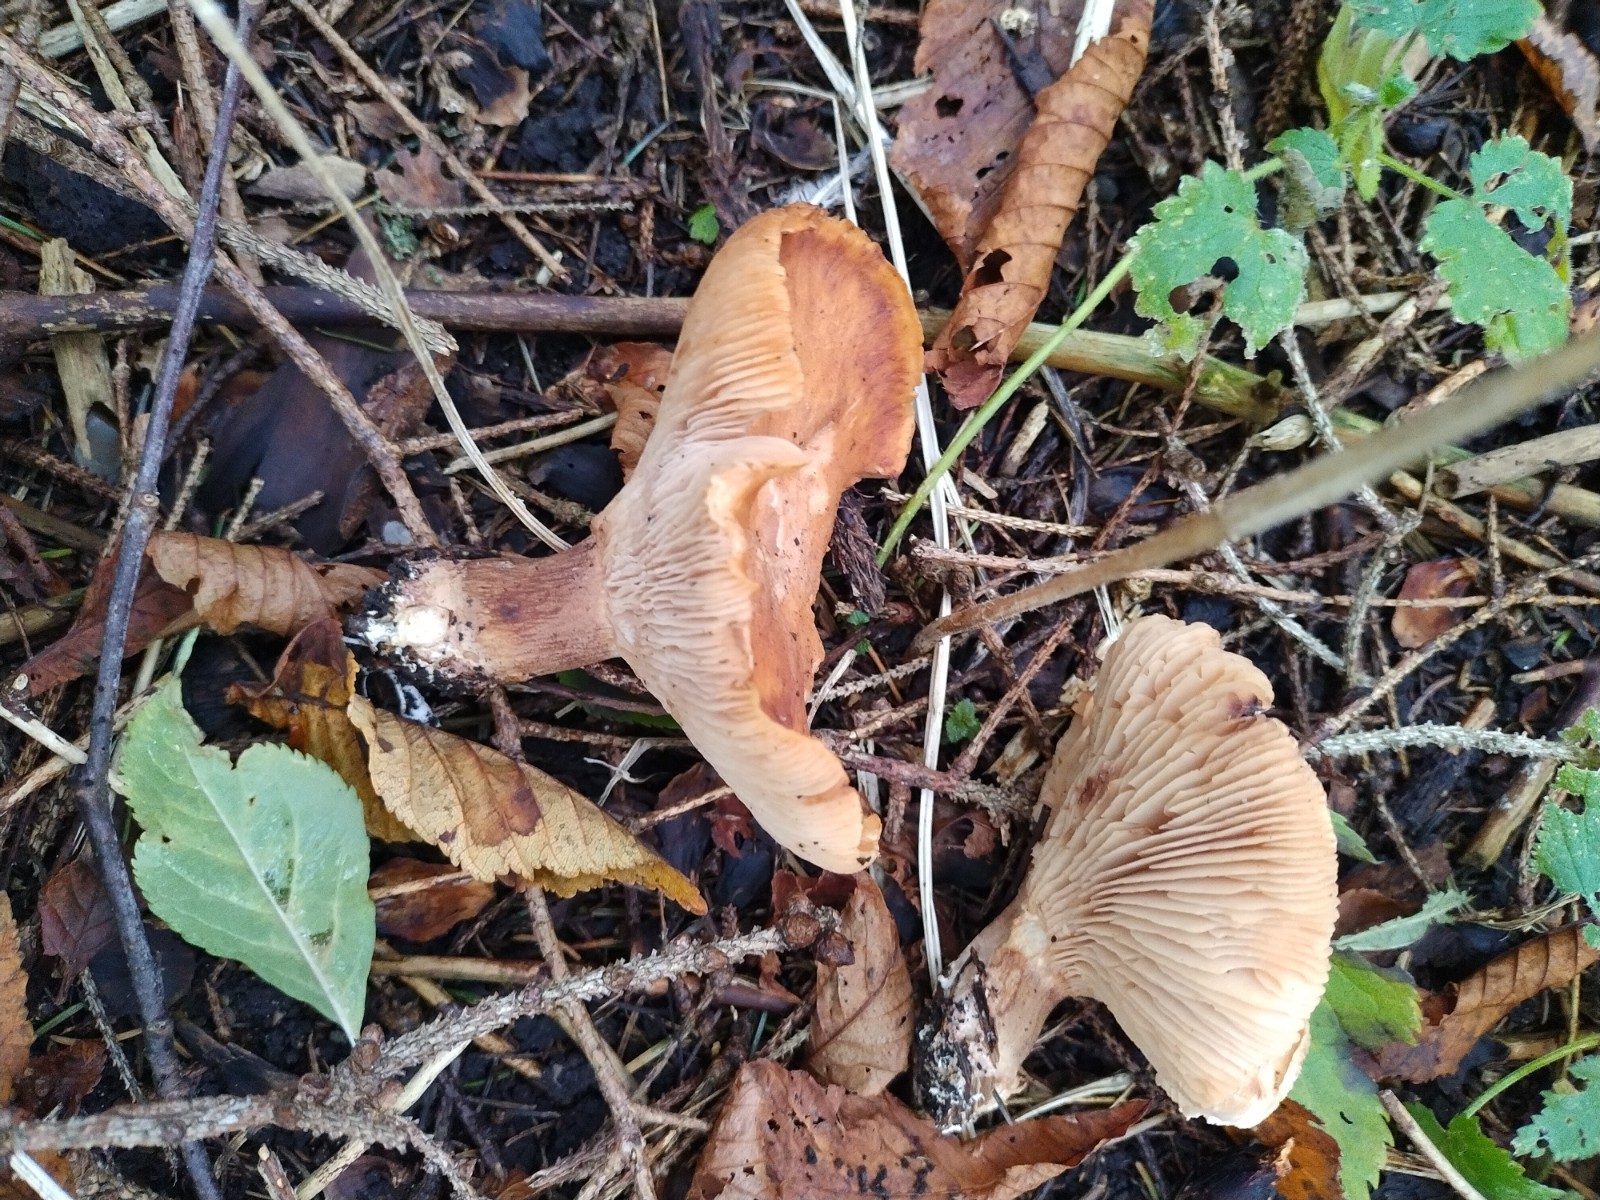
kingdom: Fungi
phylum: Basidiomycota
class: Agaricomycetes
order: Agaricales
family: Entolomataceae
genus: Clitopilus
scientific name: Clitopilus geminus
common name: kødfarvet troldhat
